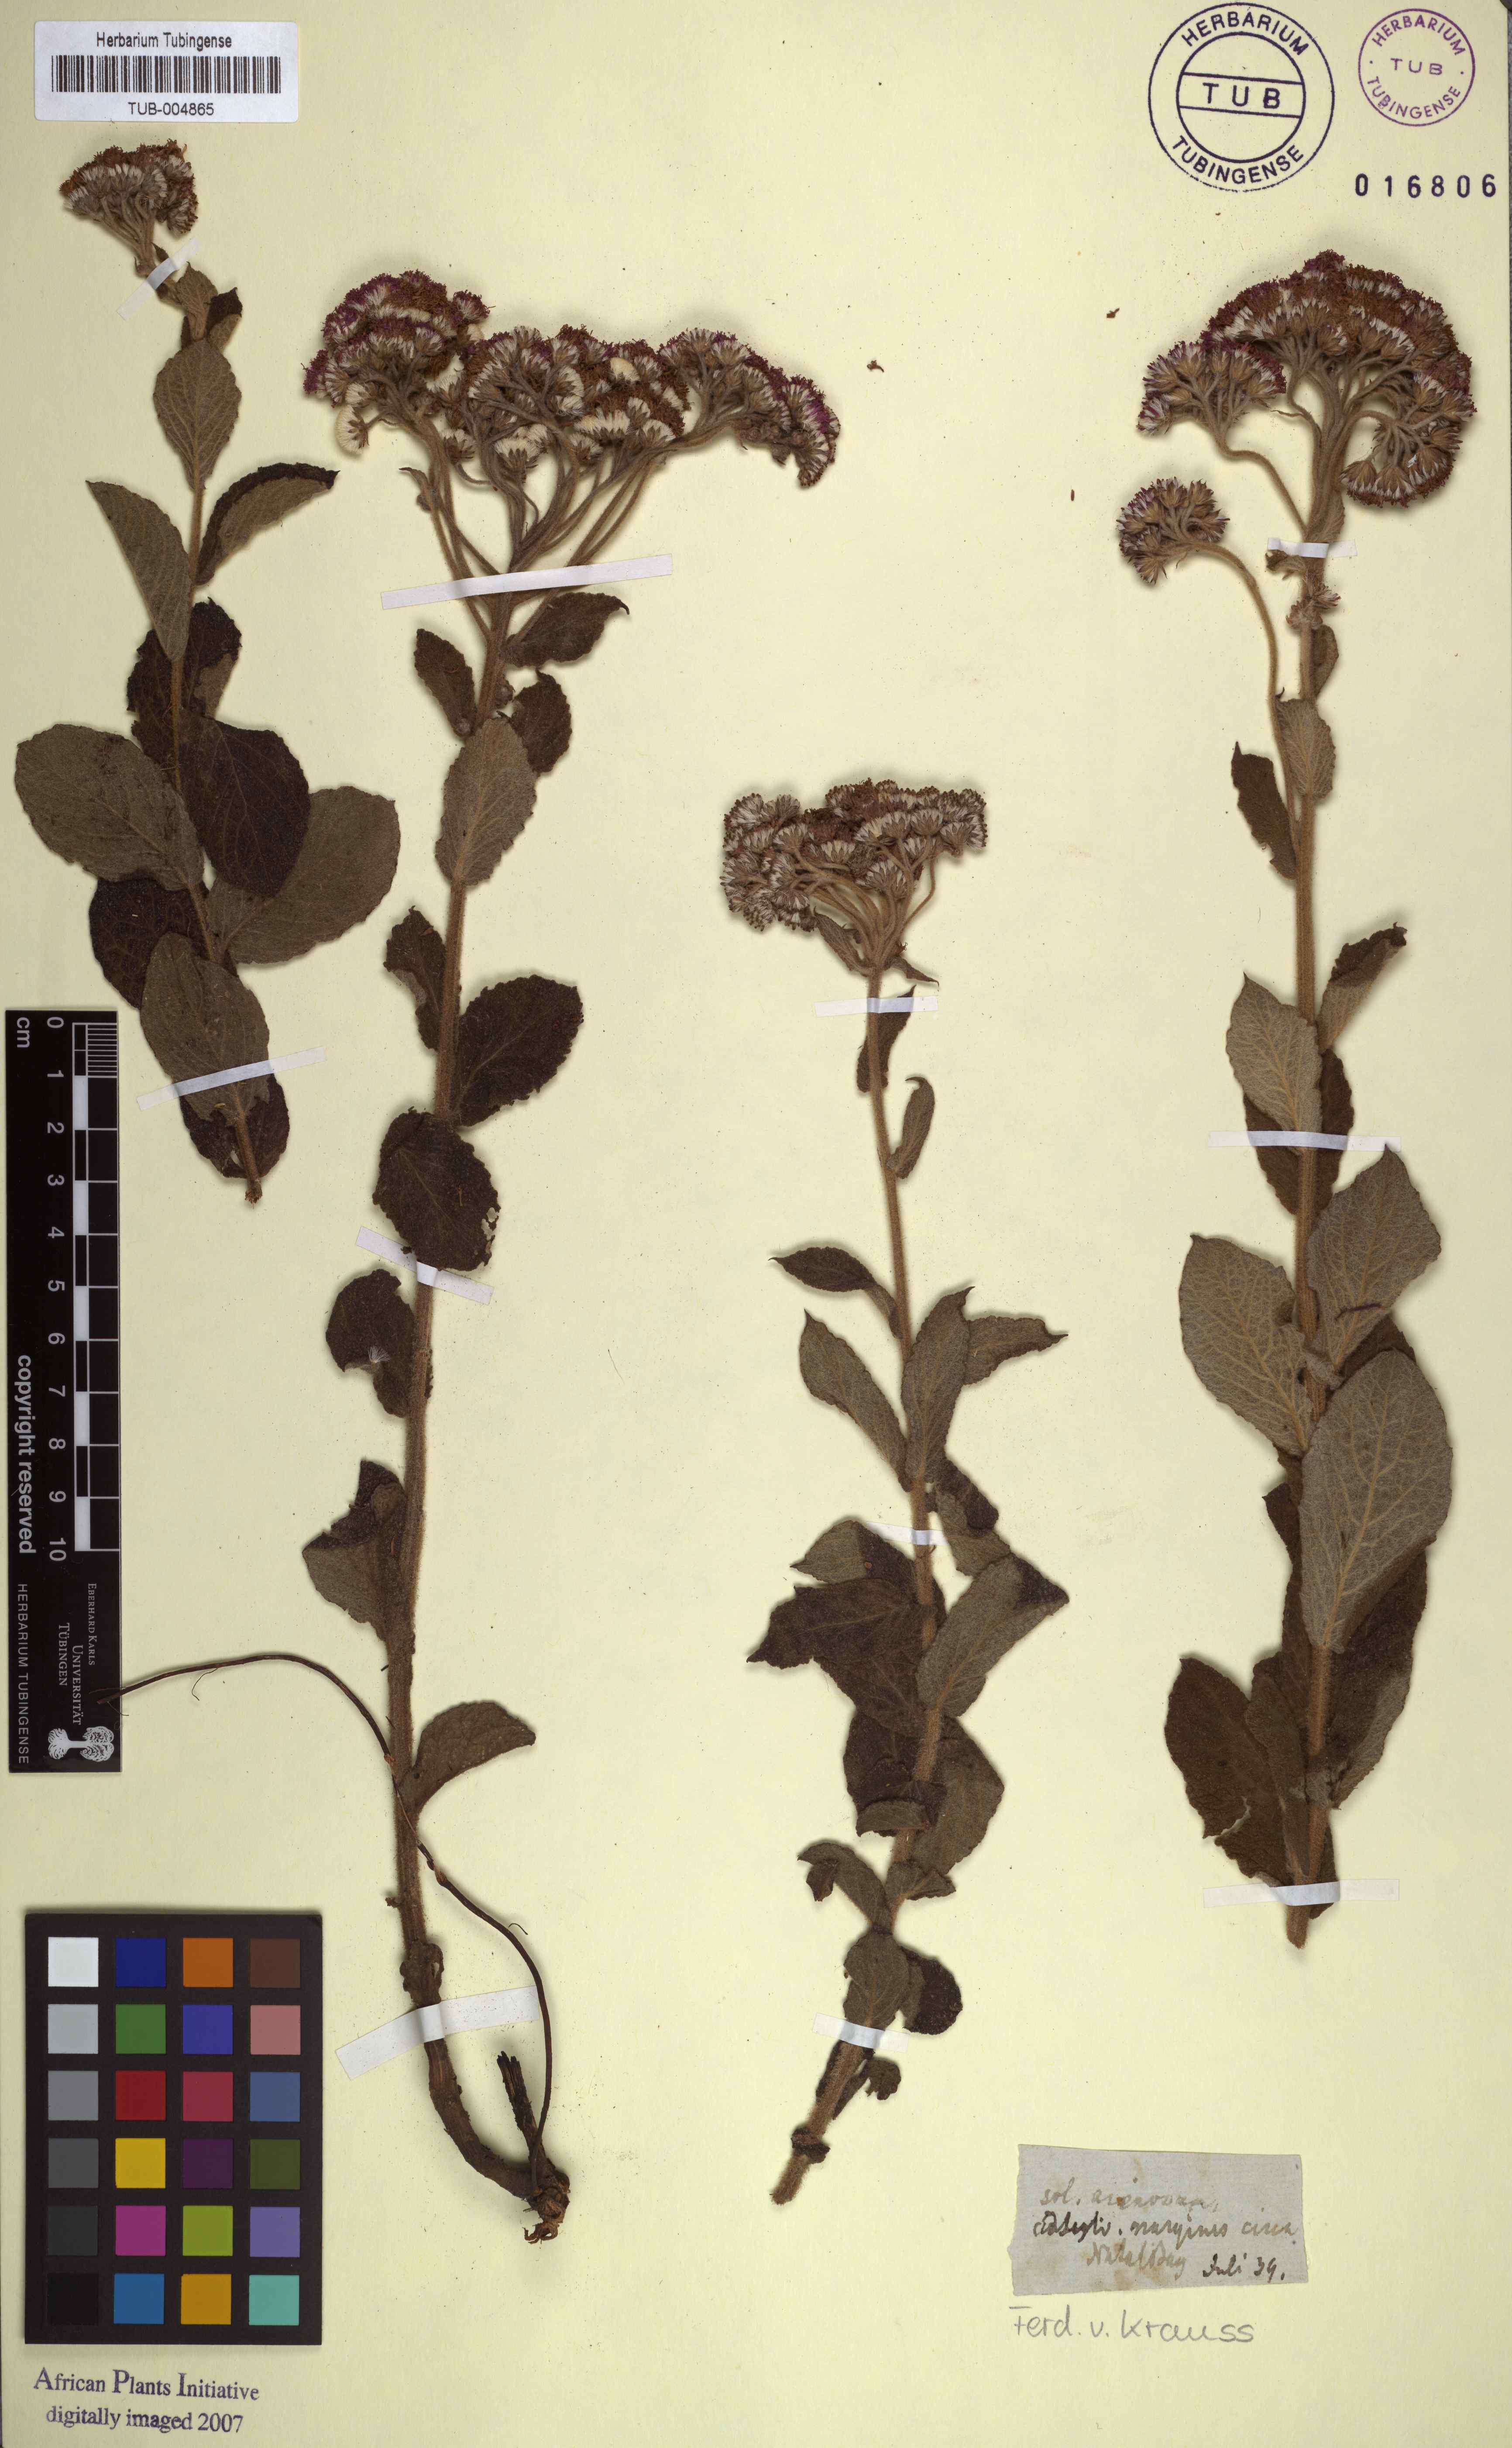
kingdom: Plantae
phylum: Tracheophyta
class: Magnoliopsida
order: Asterales
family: Asteraceae
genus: Hilliardiella
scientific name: Hilliardiella hirsuta
